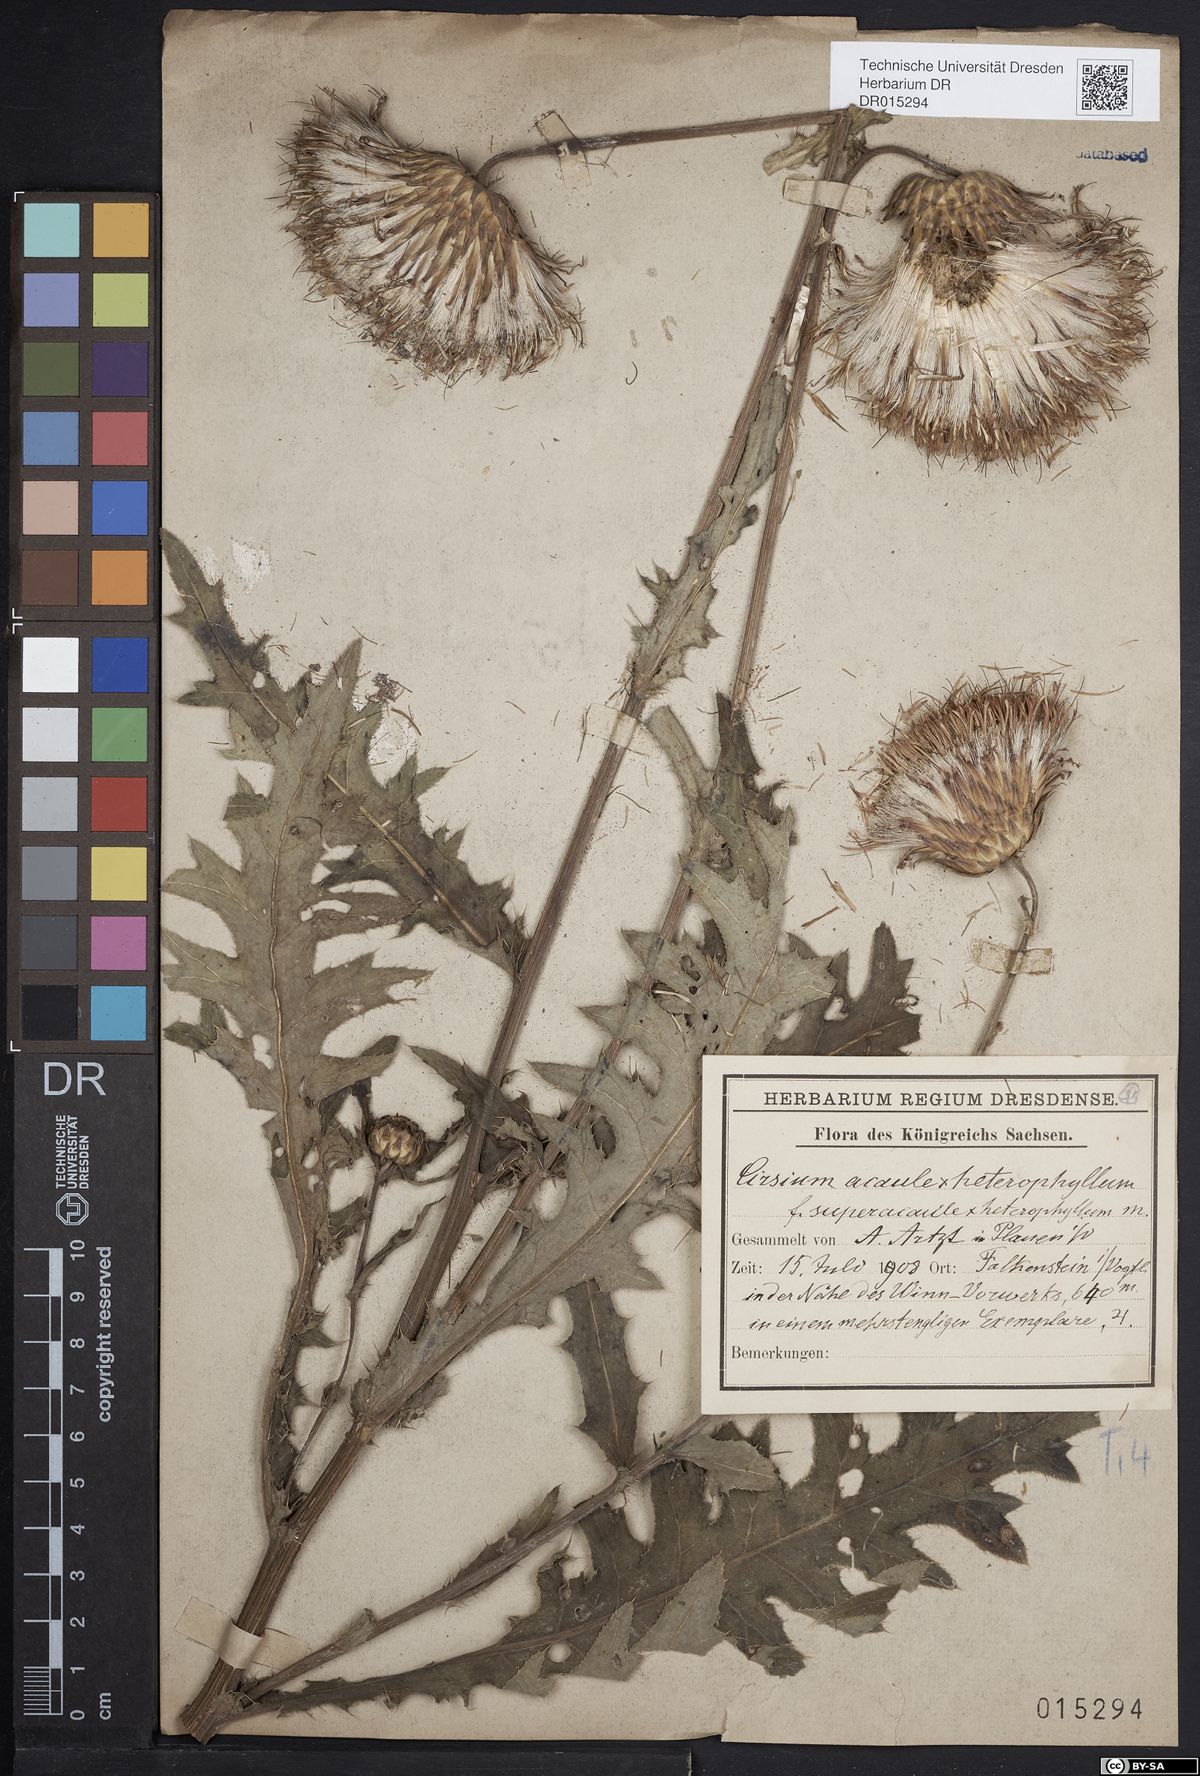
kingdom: Plantae
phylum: Tracheophyta
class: Magnoliopsida
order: Asterales
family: Asteraceae
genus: Cirsium
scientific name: Cirsium
